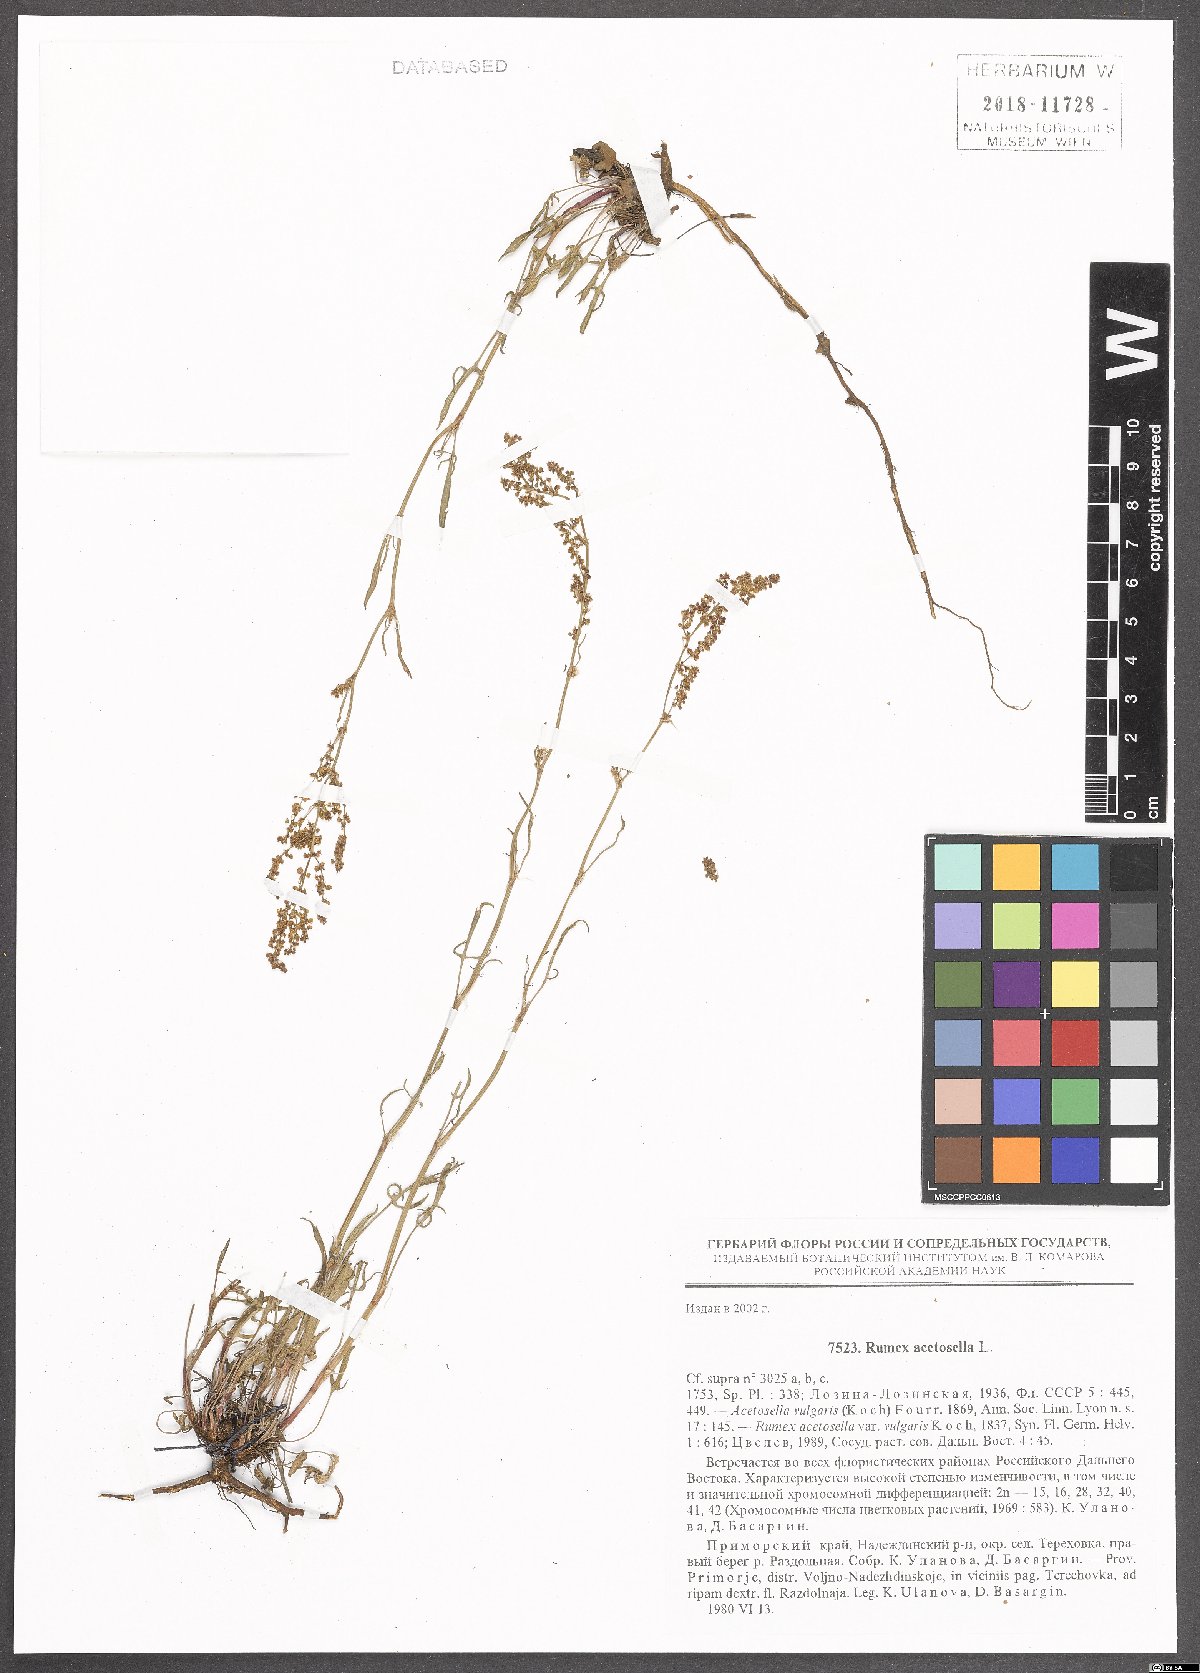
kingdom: Plantae
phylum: Tracheophyta
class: Magnoliopsida
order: Caryophyllales
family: Polygonaceae
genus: Rumex
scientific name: Rumex acetosella
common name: Common sheep sorrel
